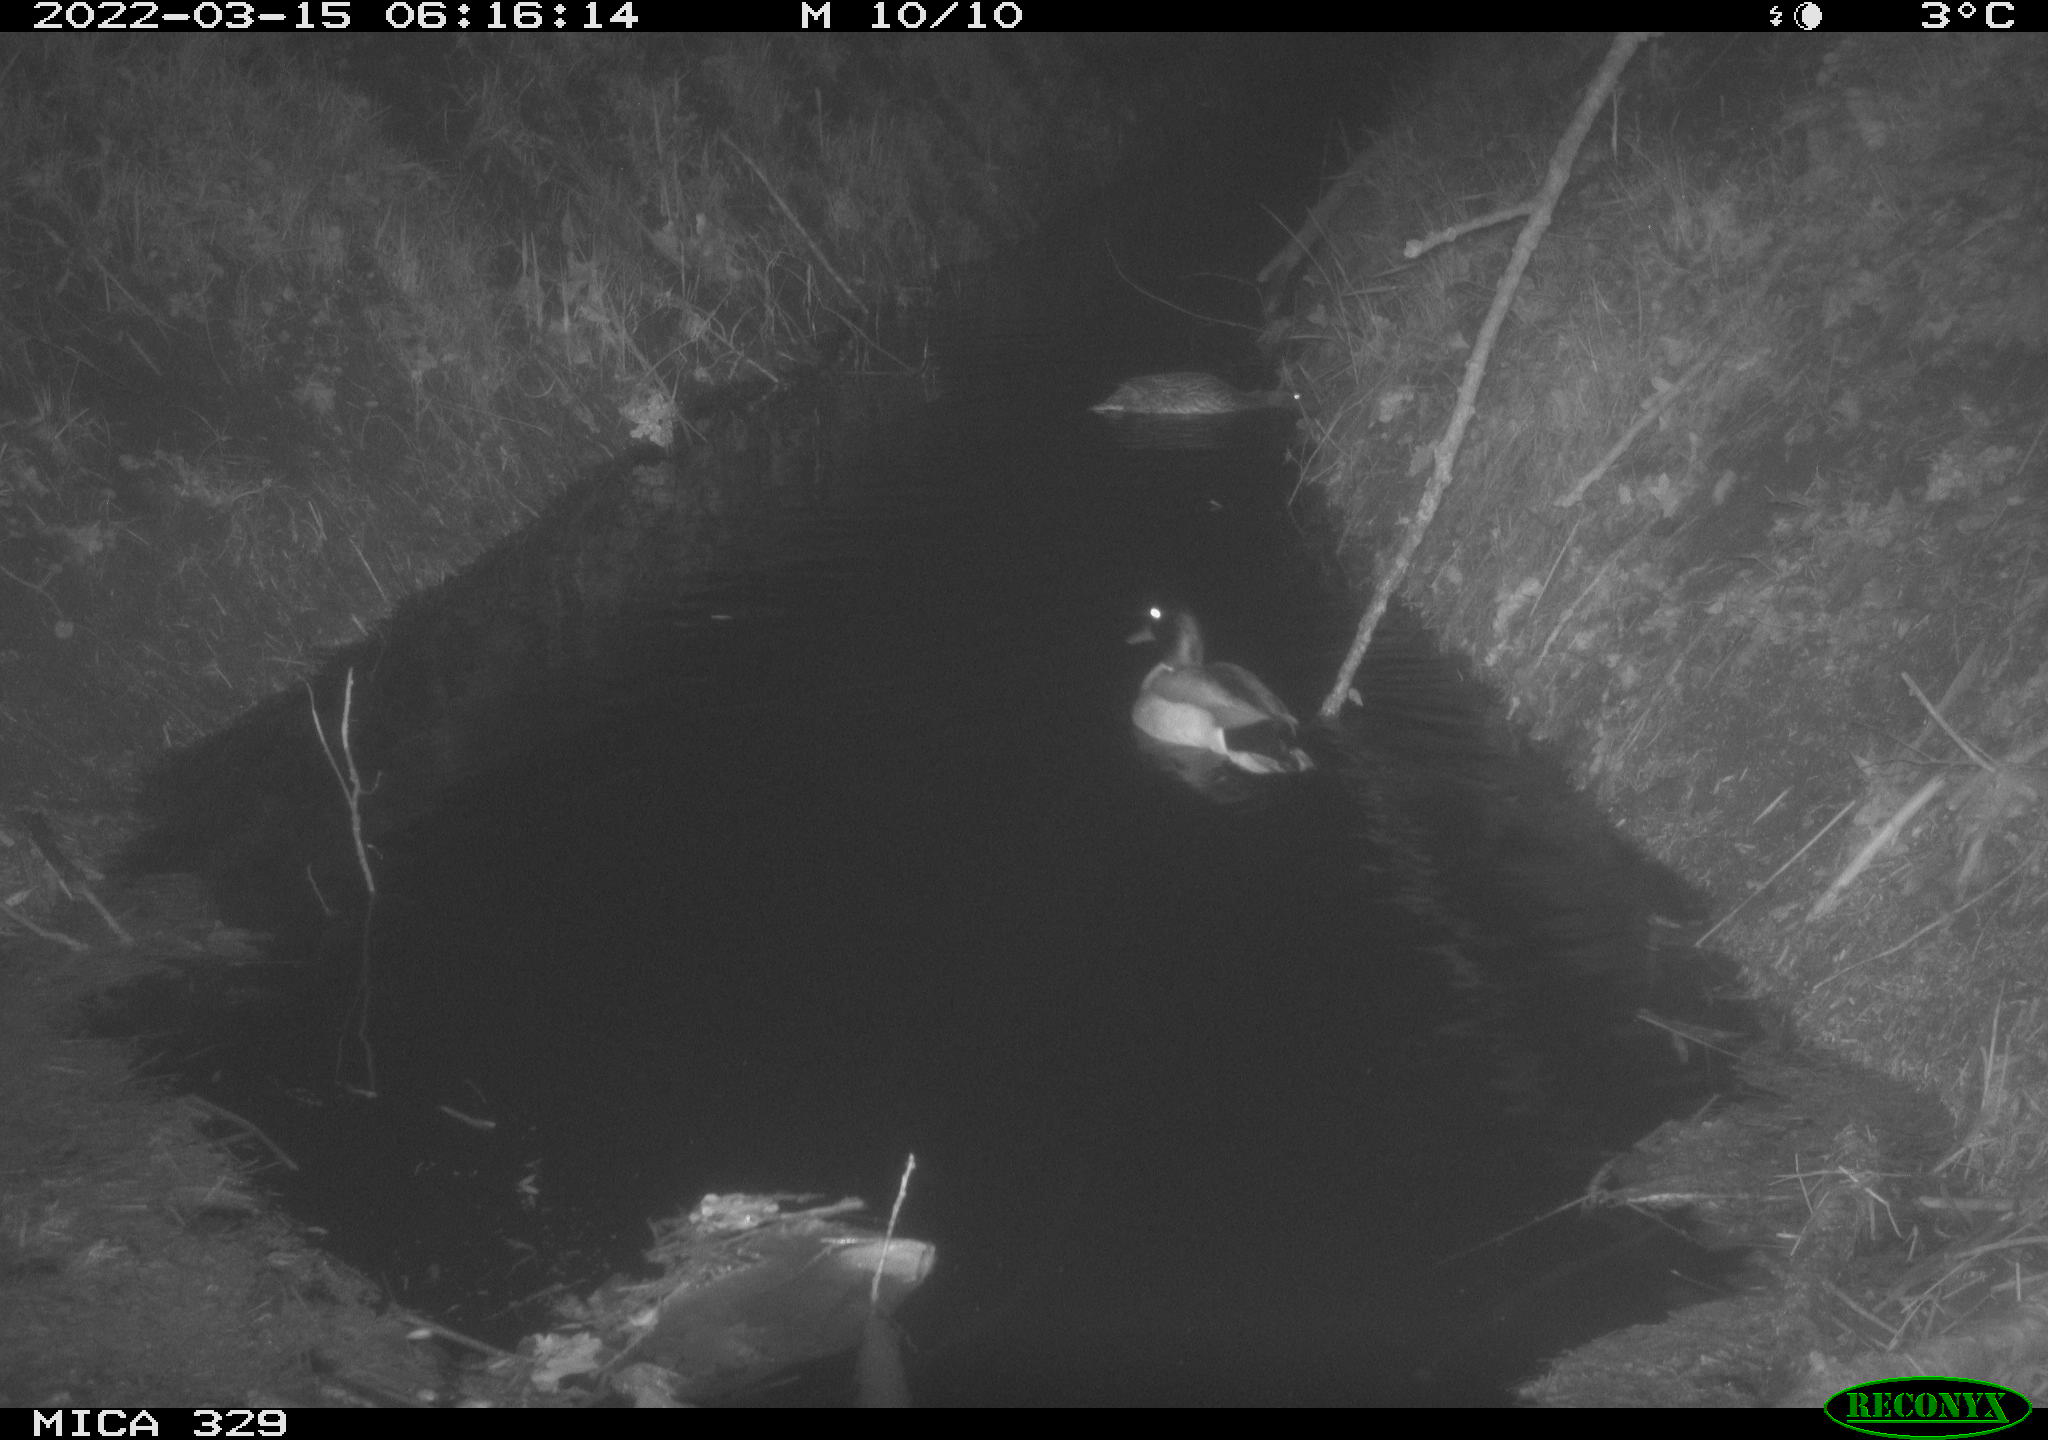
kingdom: Animalia
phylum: Chordata
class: Aves
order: Anseriformes
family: Anatidae
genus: Anas
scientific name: Anas platyrhynchos
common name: Mallard
